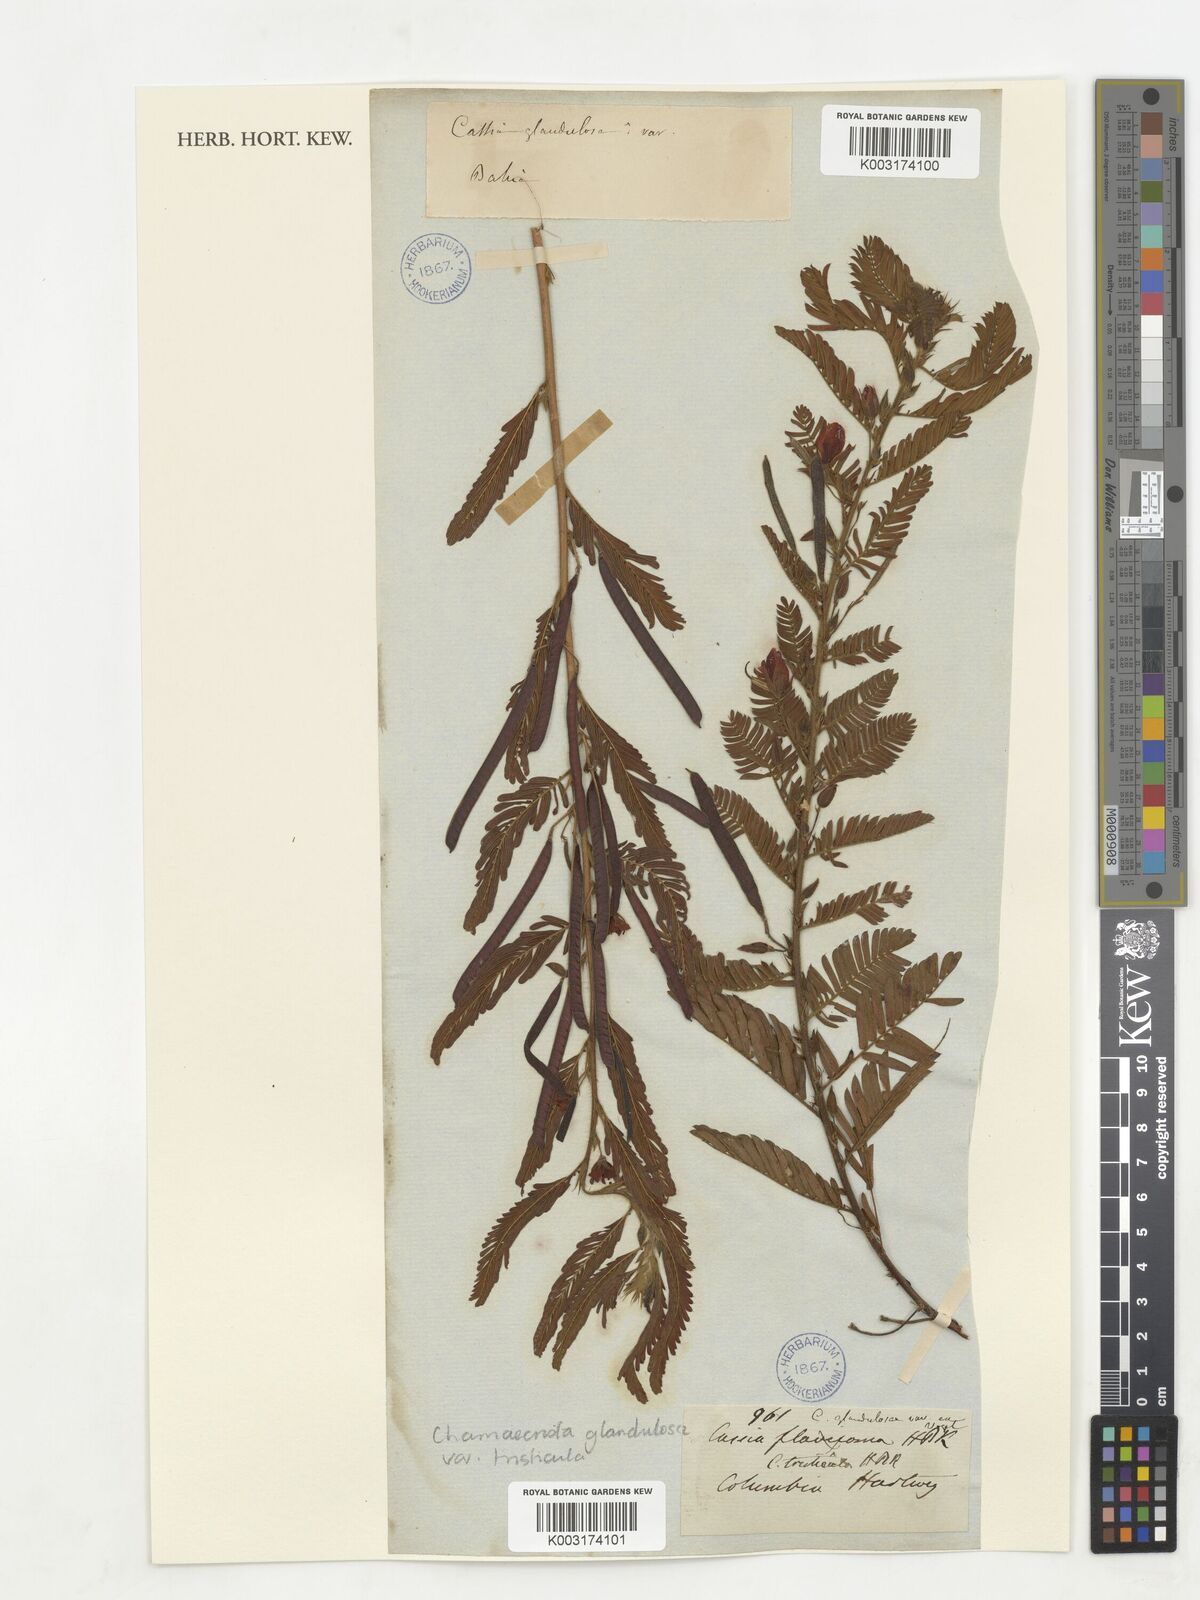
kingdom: Plantae
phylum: Tracheophyta
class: Magnoliopsida
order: Fabales
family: Fabaceae
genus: Chamaecrista
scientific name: Chamaecrista glandulosa
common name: Wild peas
